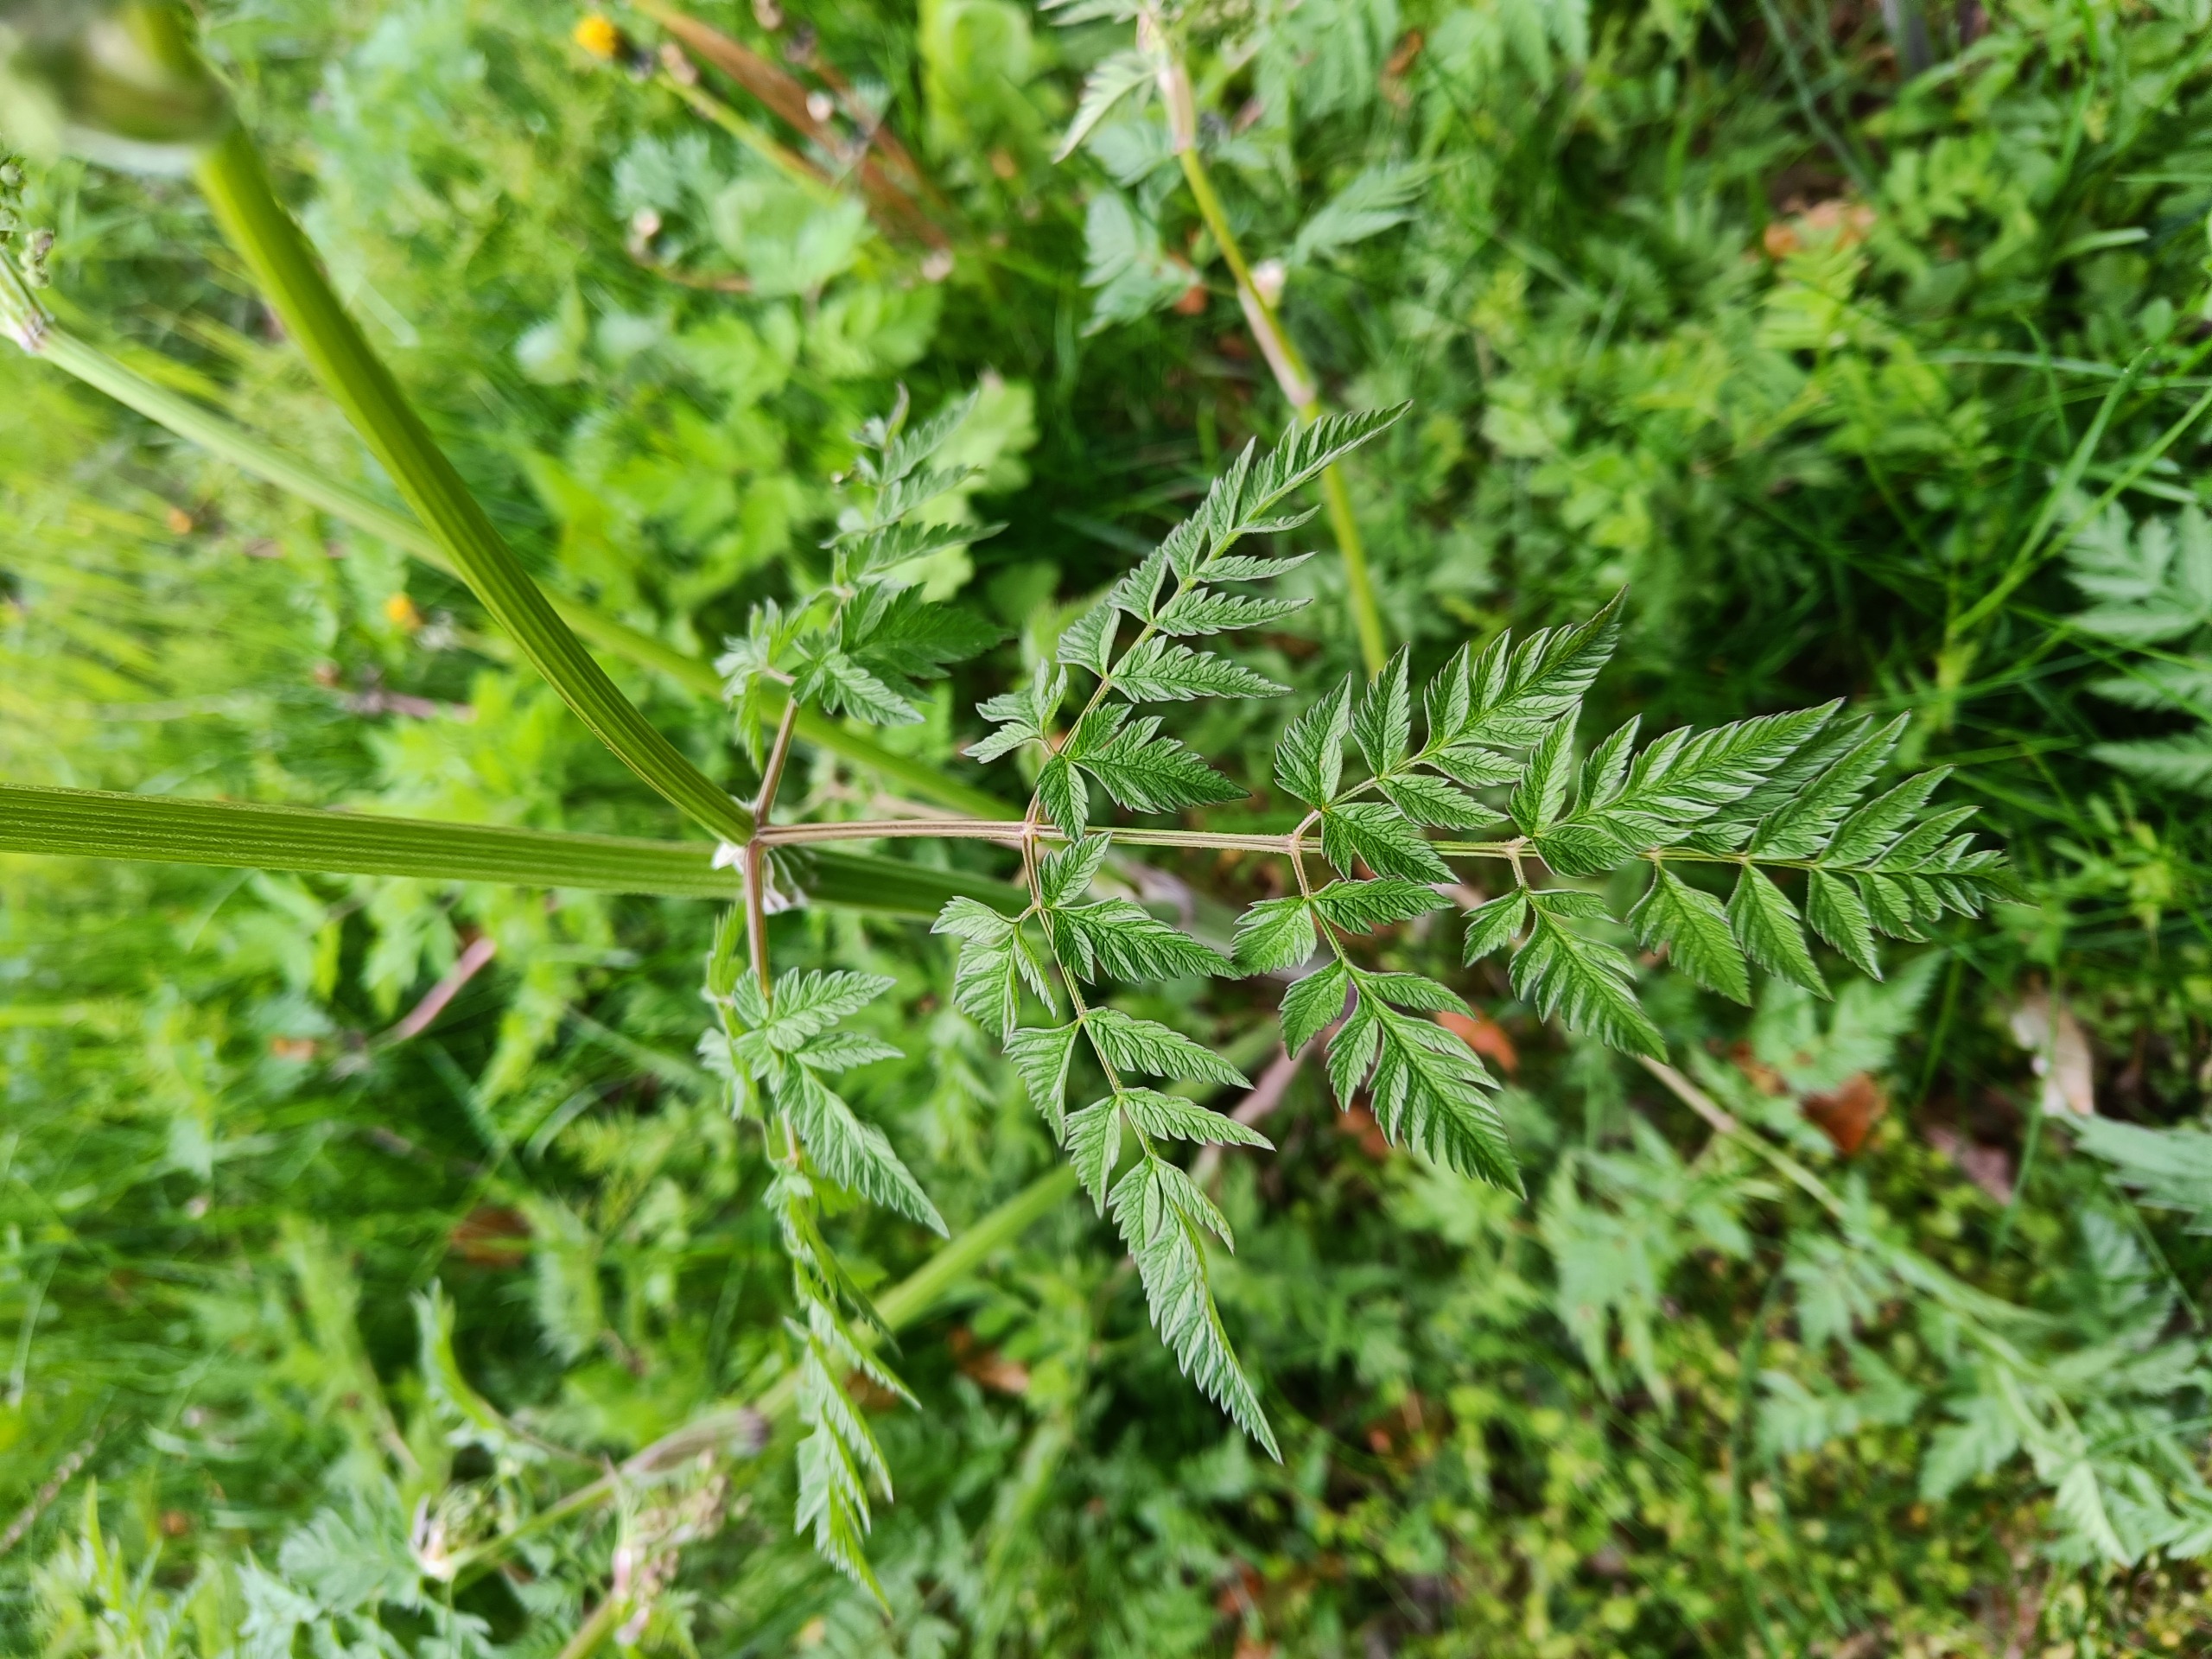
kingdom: Plantae
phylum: Tracheophyta
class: Magnoliopsida
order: Apiales
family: Apiaceae
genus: Anthriscus
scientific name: Anthriscus sylvestris
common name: Vild kørvel
